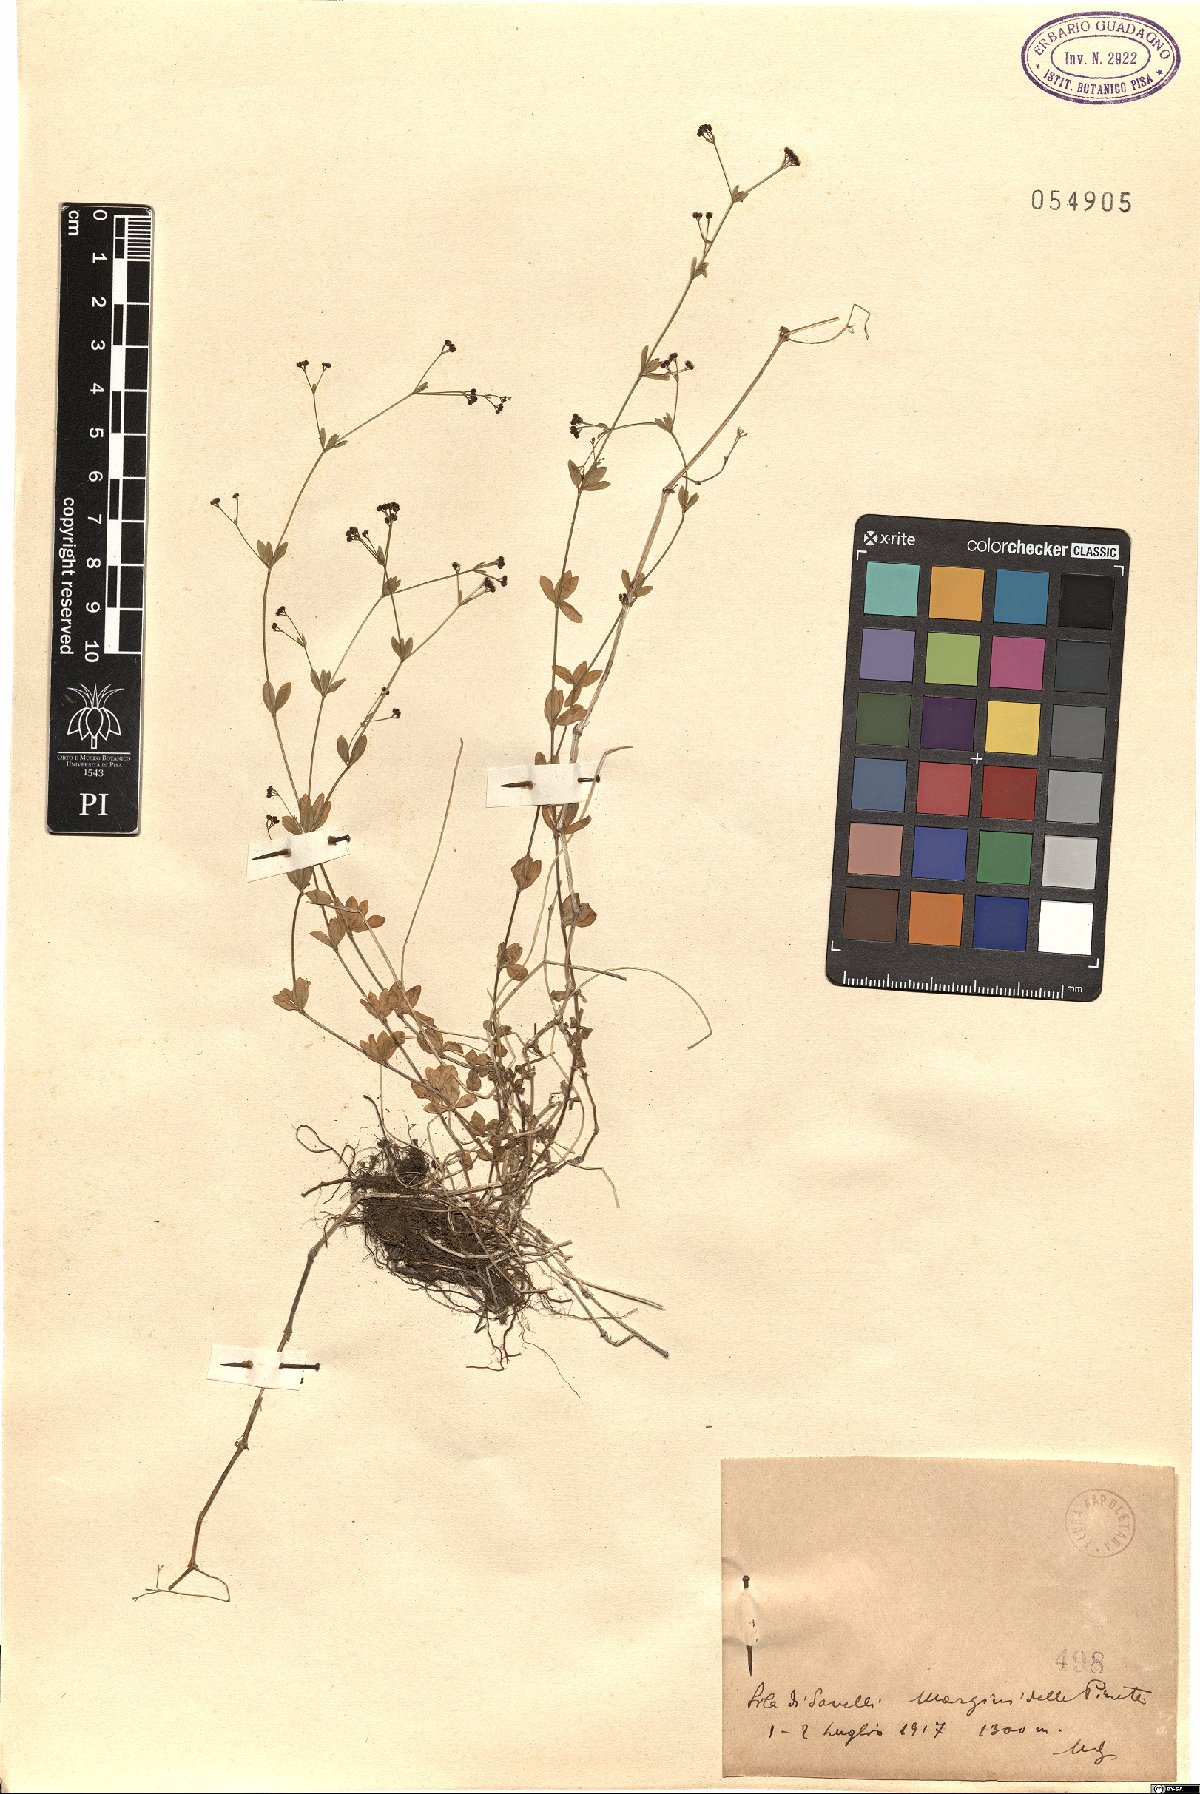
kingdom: Plantae
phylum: Tracheophyta
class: Magnoliopsida
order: Gentianales
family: Rubiaceae
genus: Asperula
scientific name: Asperula
